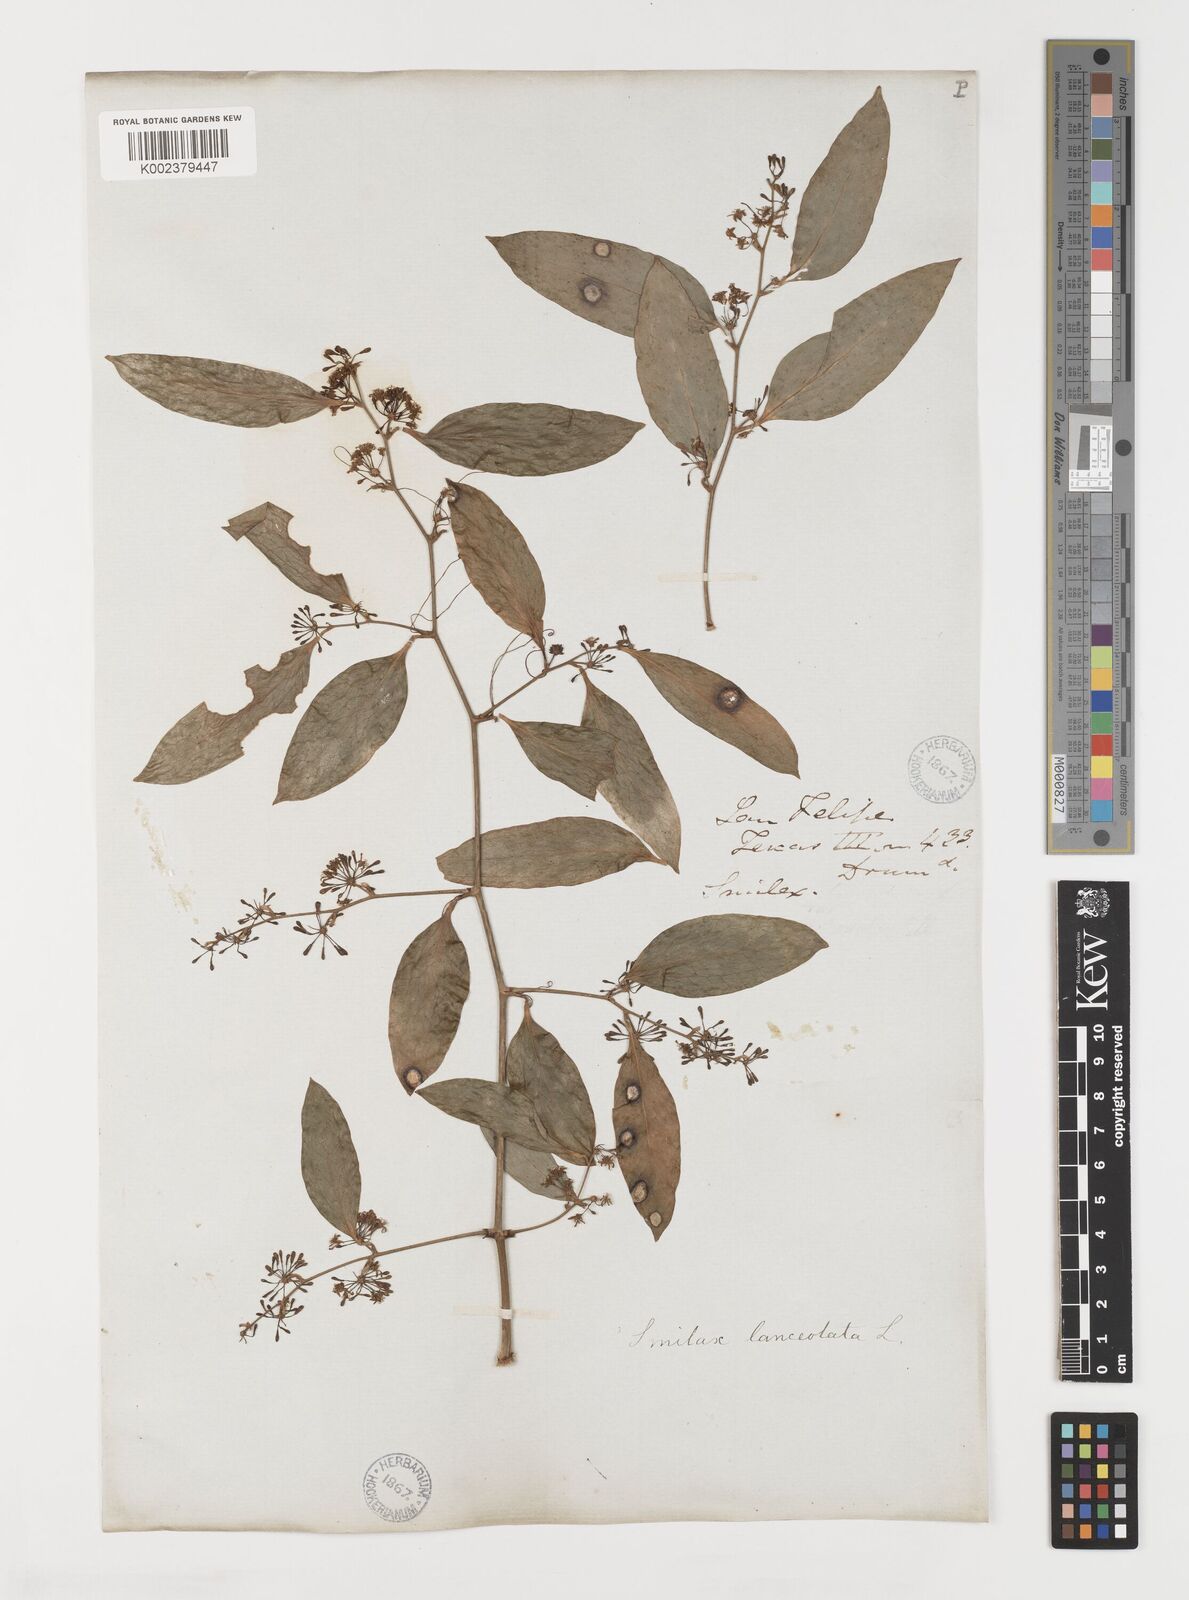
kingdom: Plantae
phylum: Tracheophyta
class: Liliopsida
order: Liliales
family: Smilacaceae
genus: Smilax
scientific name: Smilax laurifolia
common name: Bamboovine
